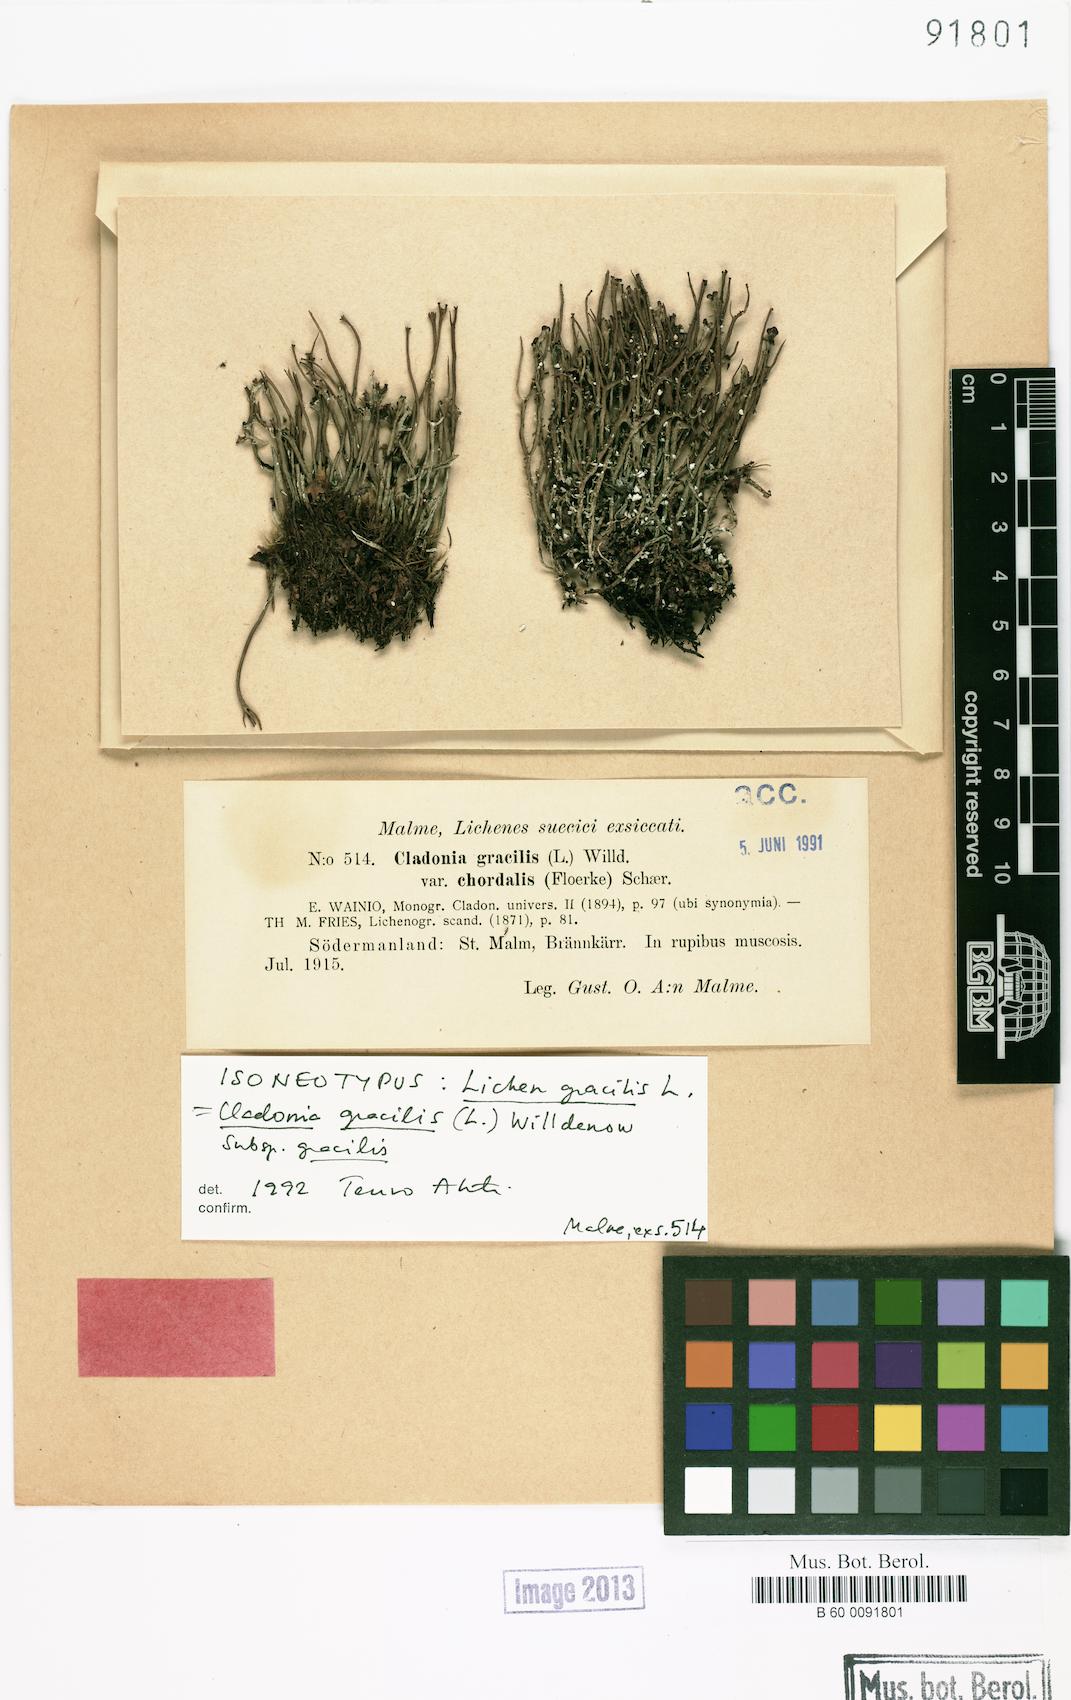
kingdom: Fungi
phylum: Ascomycota
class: Lecanoromycetes
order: Lecanorales
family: Cladoniaceae
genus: Cladonia
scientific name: Cladonia gracilis
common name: Smooth clad lichen
